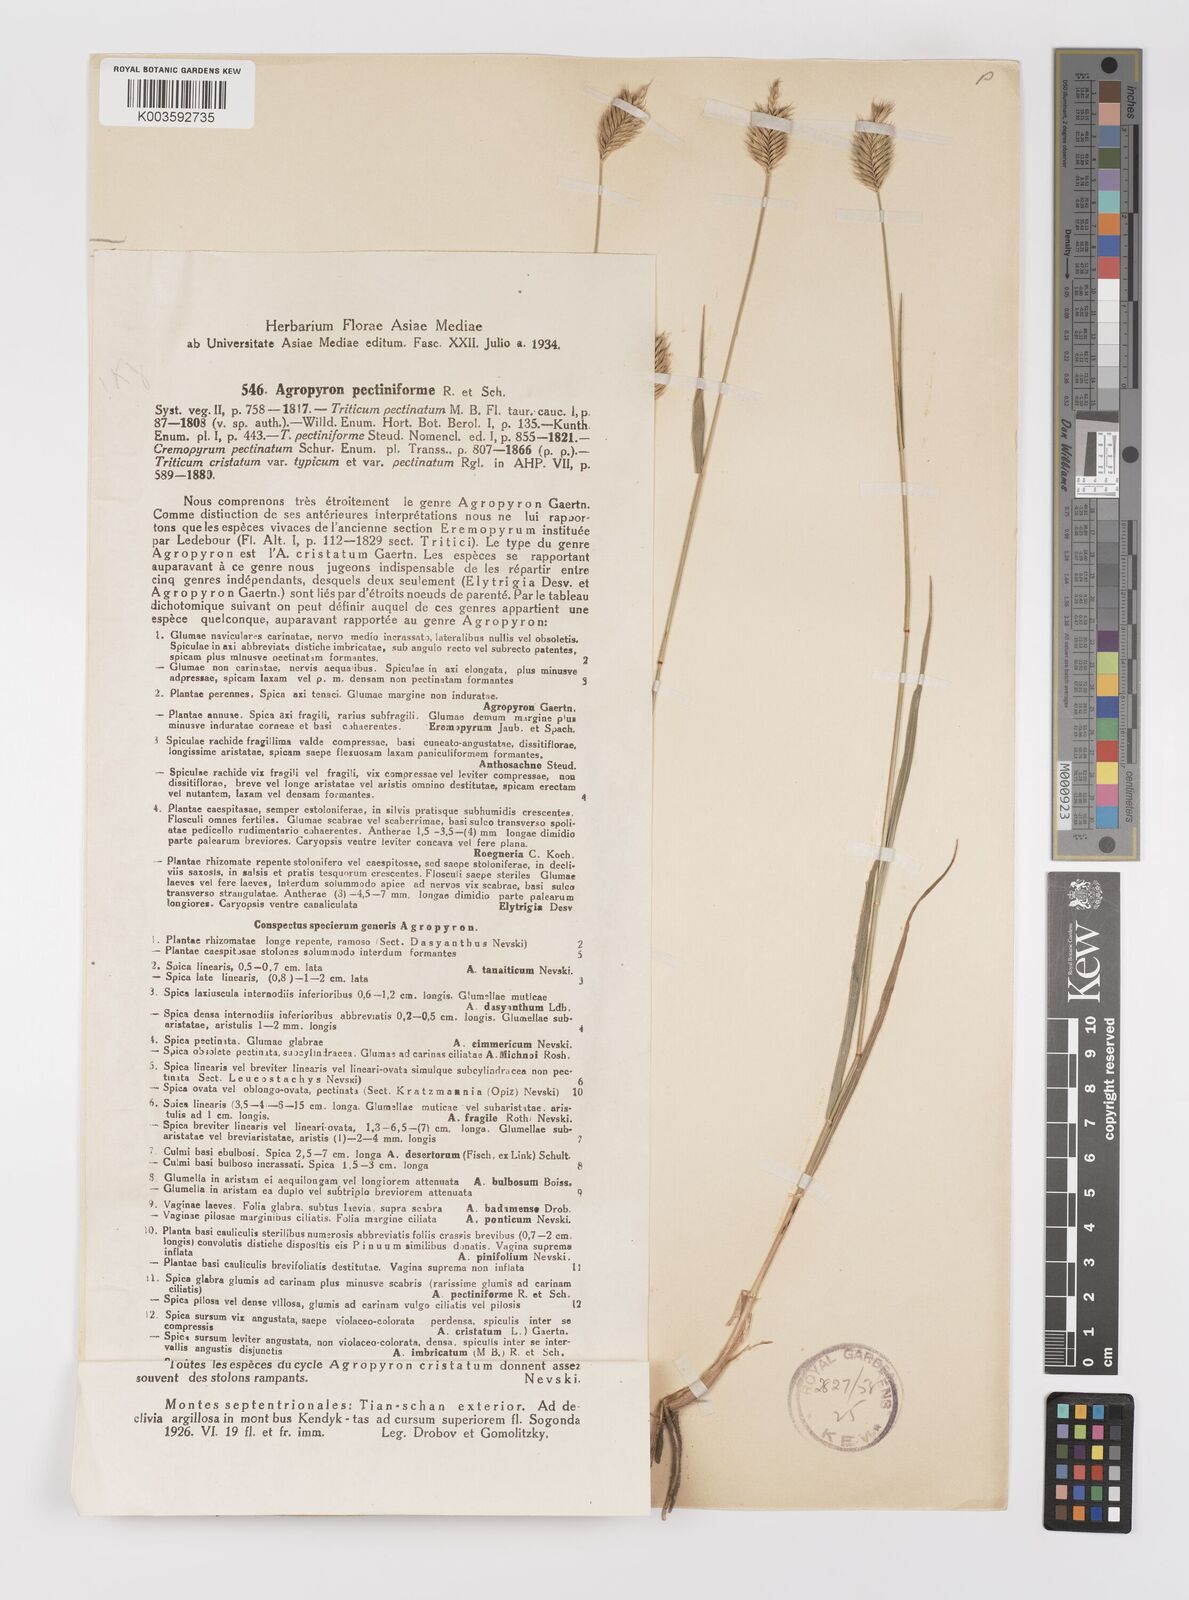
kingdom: Plantae
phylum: Tracheophyta
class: Liliopsida
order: Poales
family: Poaceae
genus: Agropyron
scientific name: Agropyron cristatum
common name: Crested wheatgrass
